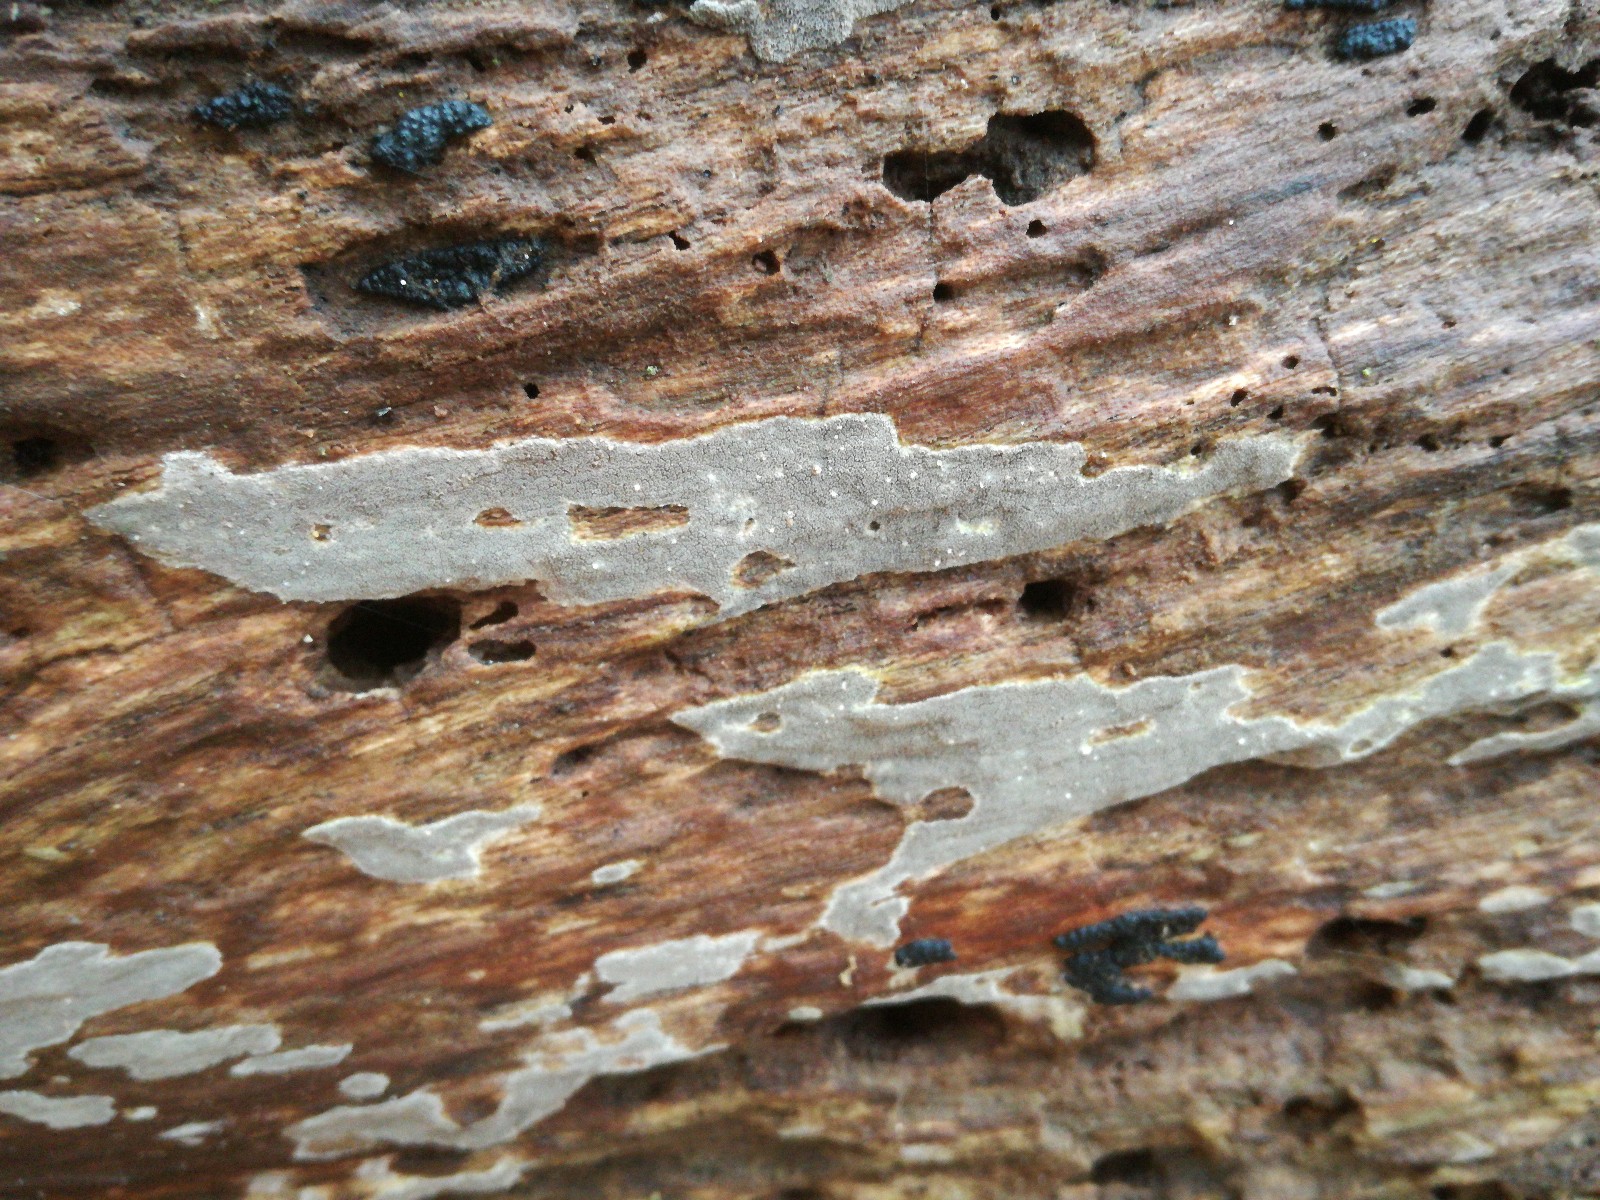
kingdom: Fungi
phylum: Basidiomycota
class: Agaricomycetes
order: Agaricales
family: Pleurotaceae
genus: Resupinatus
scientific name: Resupinatus poriaeformis
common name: tæpperør
